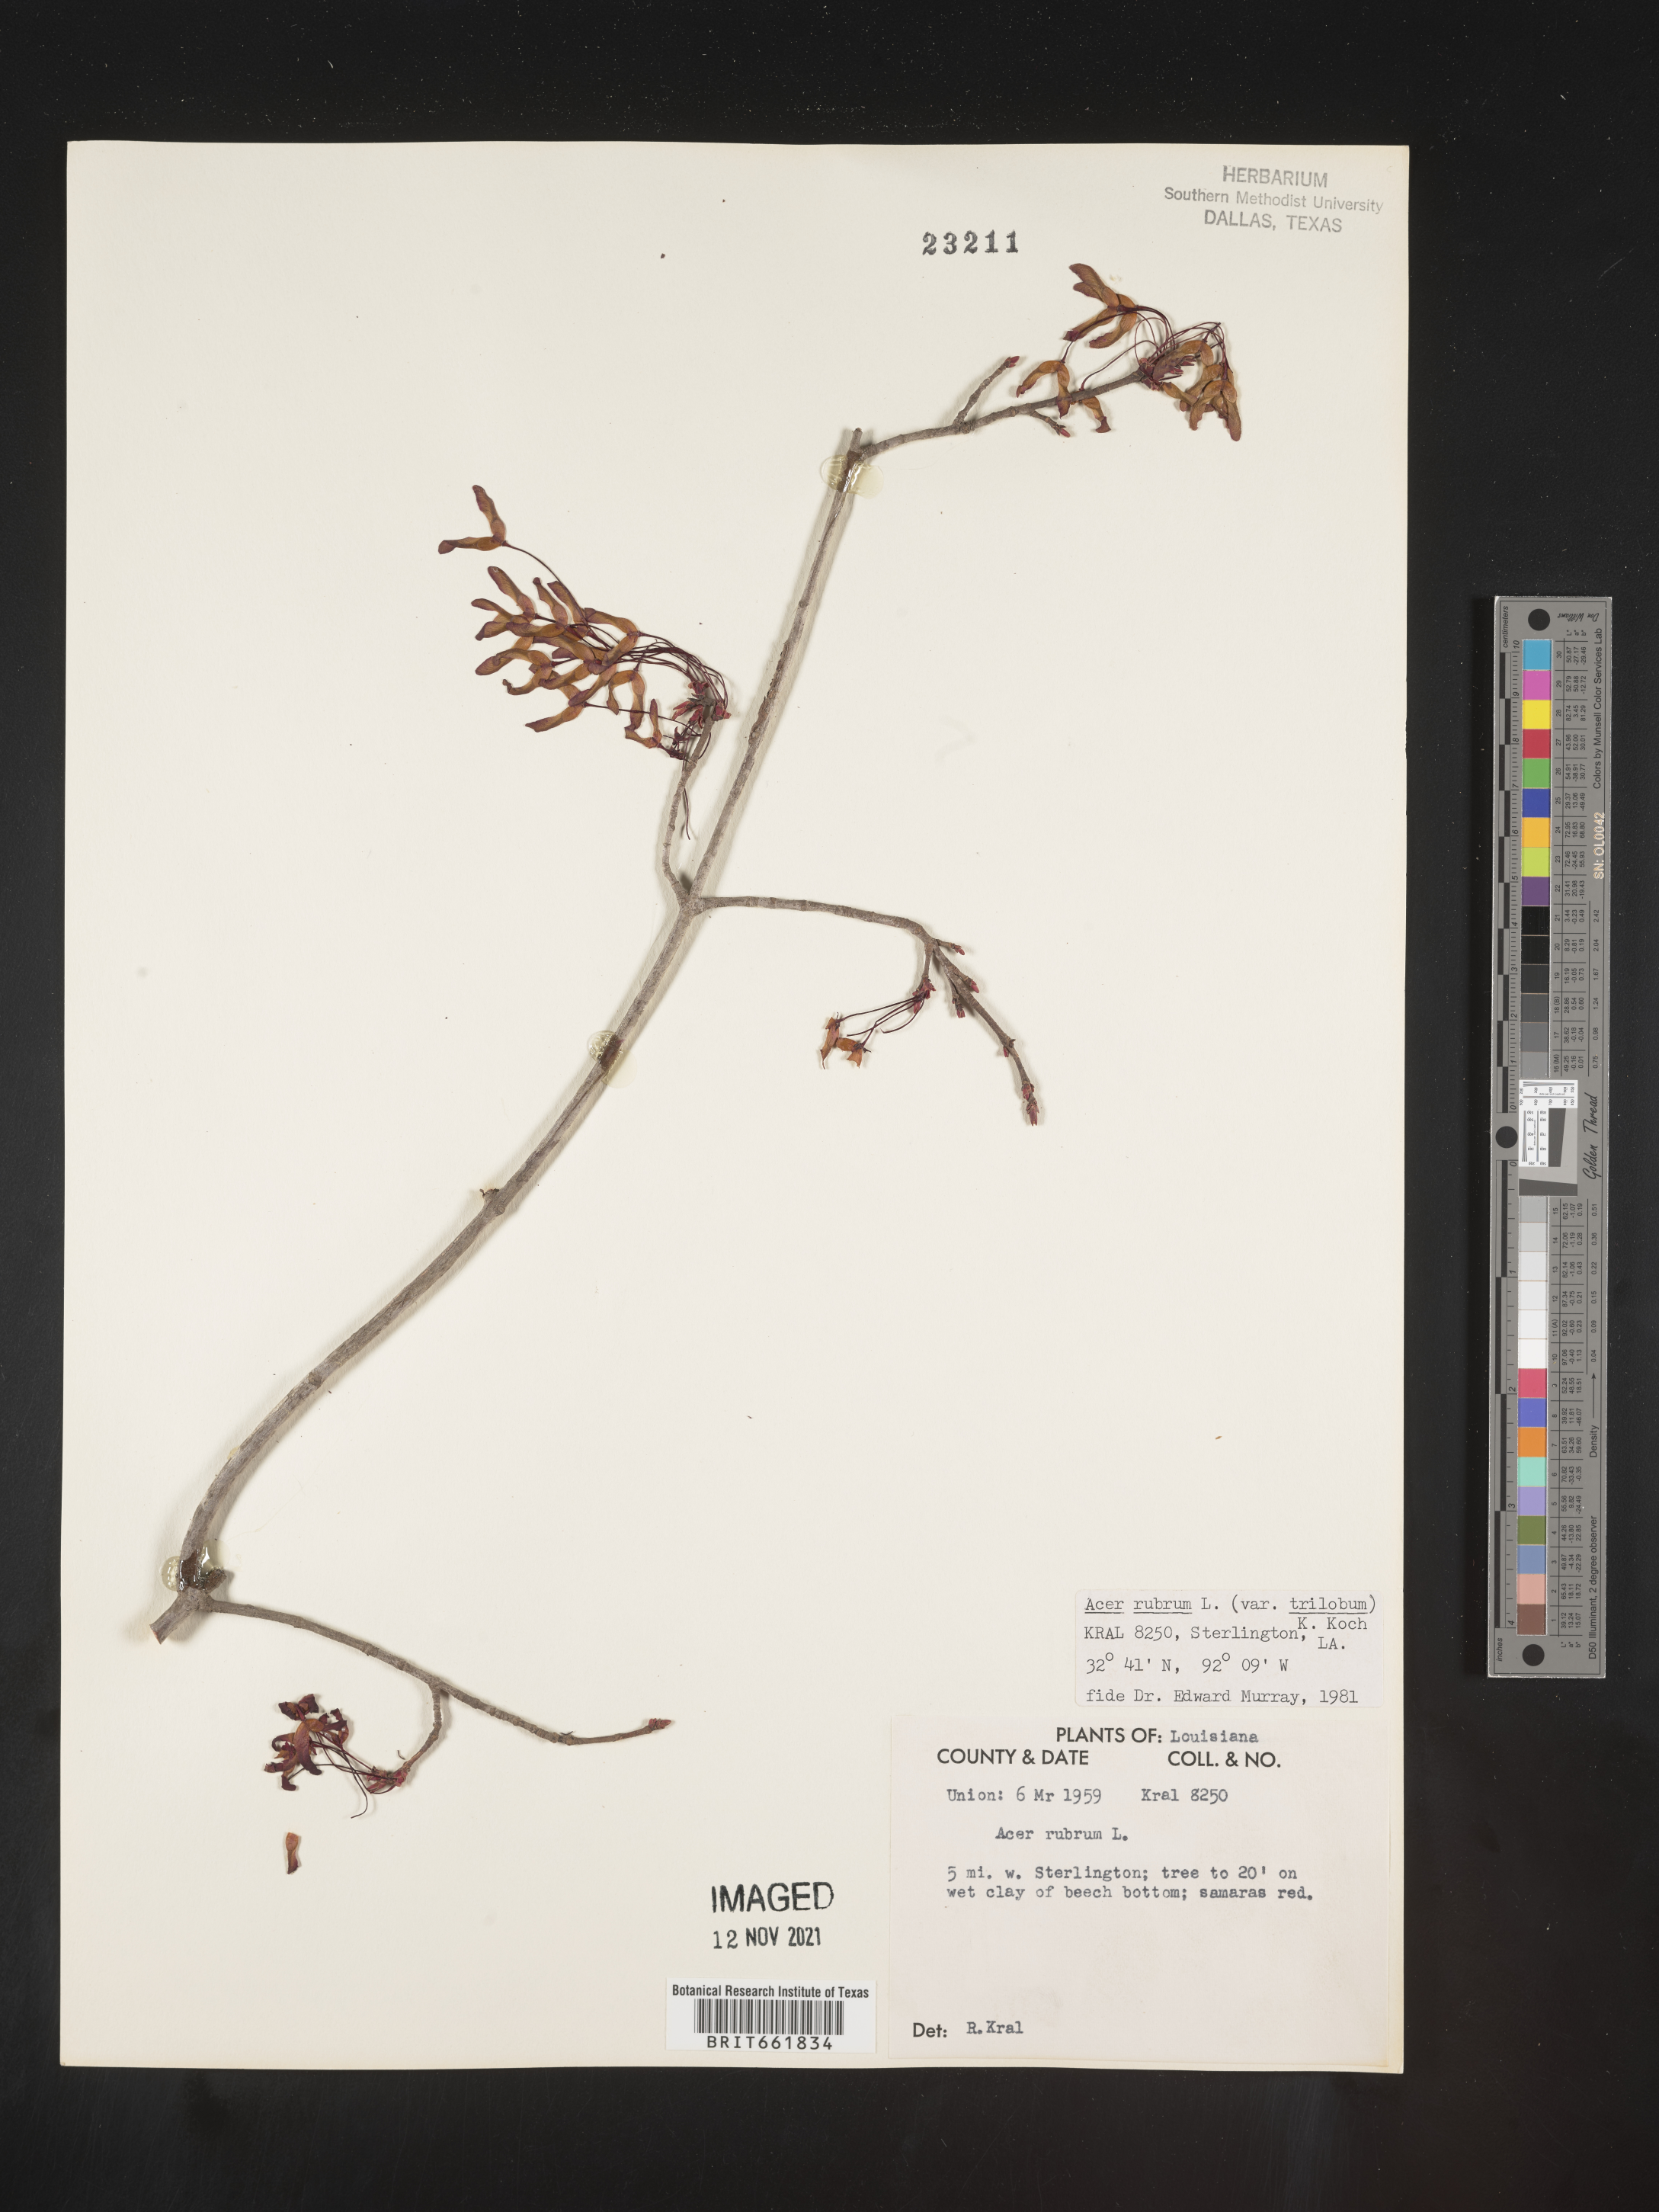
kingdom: Plantae
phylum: Tracheophyta
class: Magnoliopsida
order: Sapindales
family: Sapindaceae
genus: Acer
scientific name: Acer rubrum
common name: Red maple
